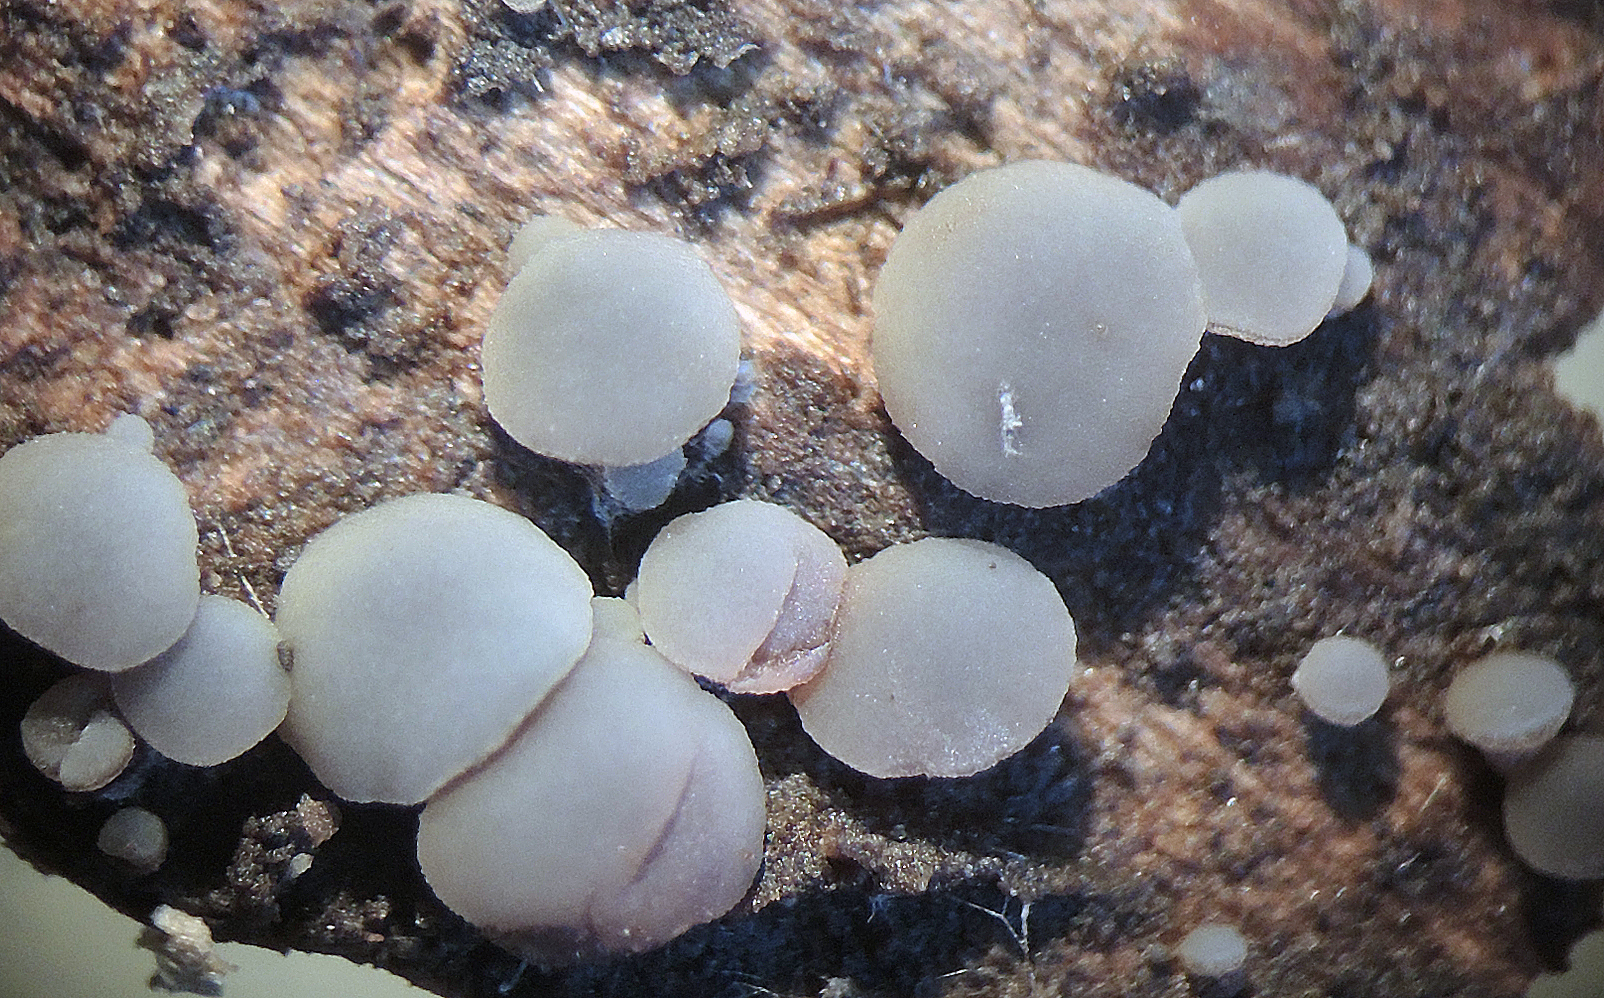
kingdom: Fungi
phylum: Ascomycota
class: Leotiomycetes
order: Helotiales
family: Mollisiaceae
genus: Mollisia
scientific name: Mollisia
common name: gråskive
